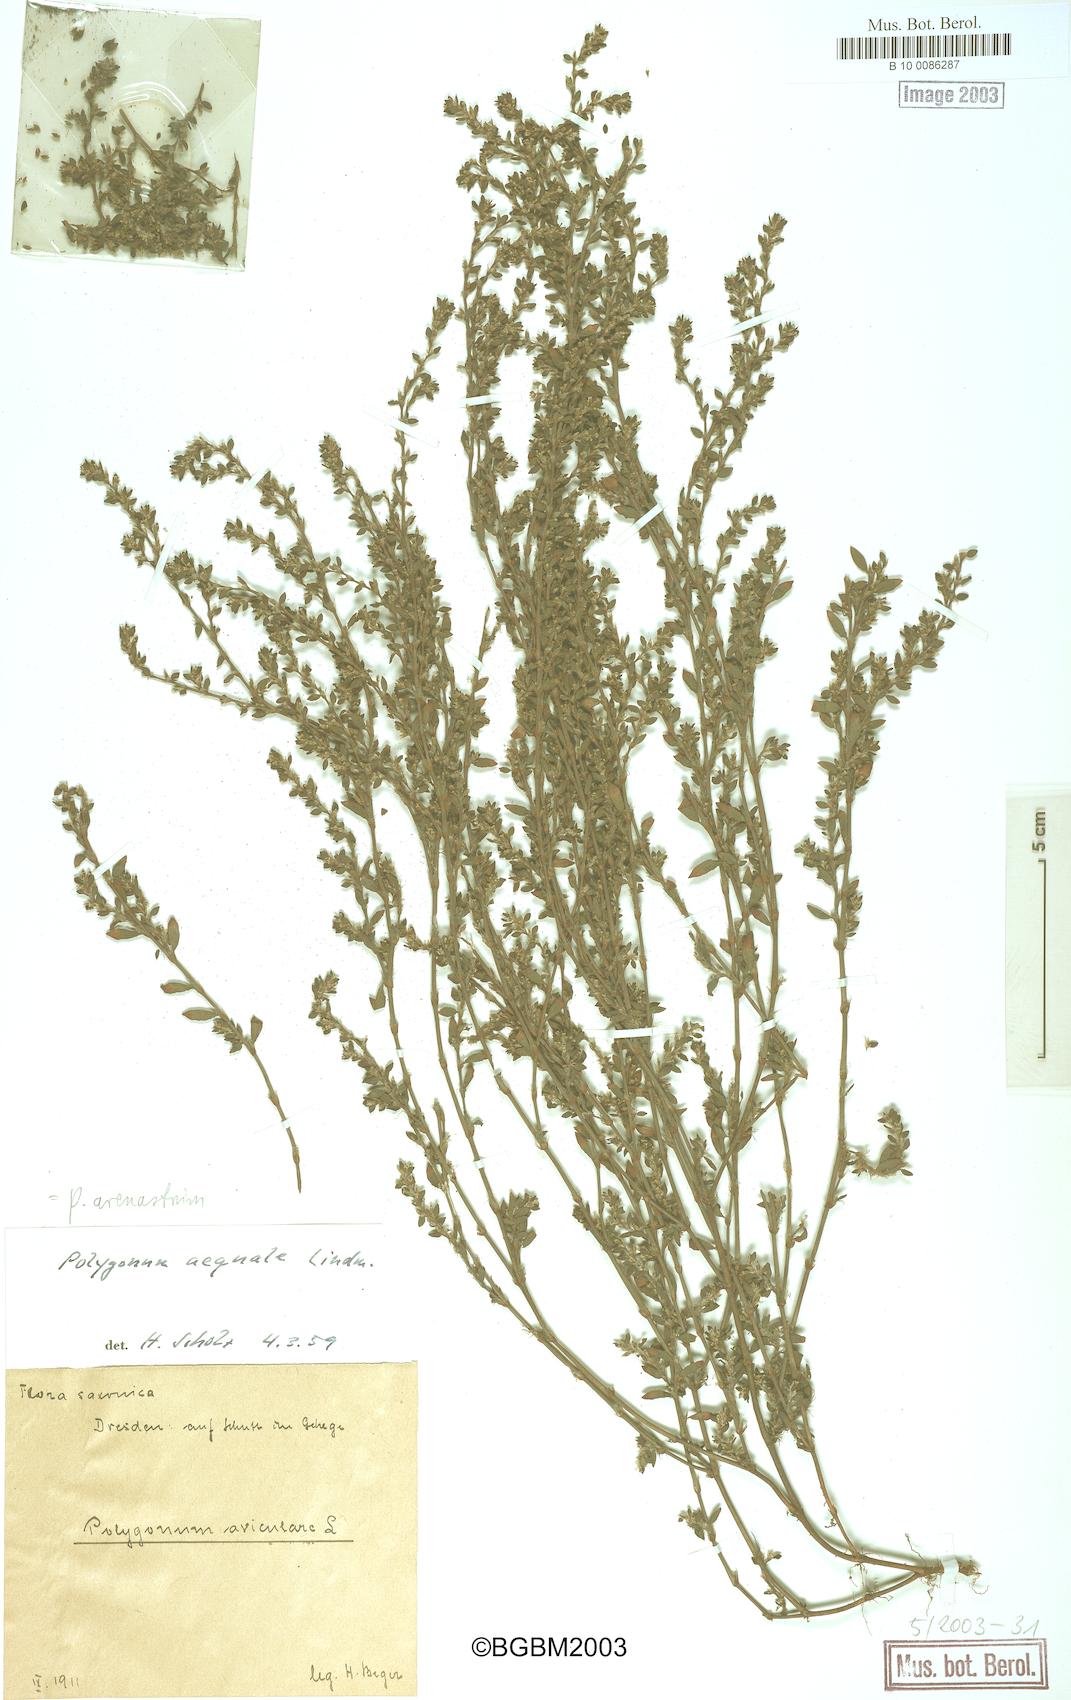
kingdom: Plantae
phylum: Tracheophyta
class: Magnoliopsida
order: Caryophyllales
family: Polygonaceae
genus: Polygonum
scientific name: Polygonum arenastrum
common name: Equal-leaved knotgrass
